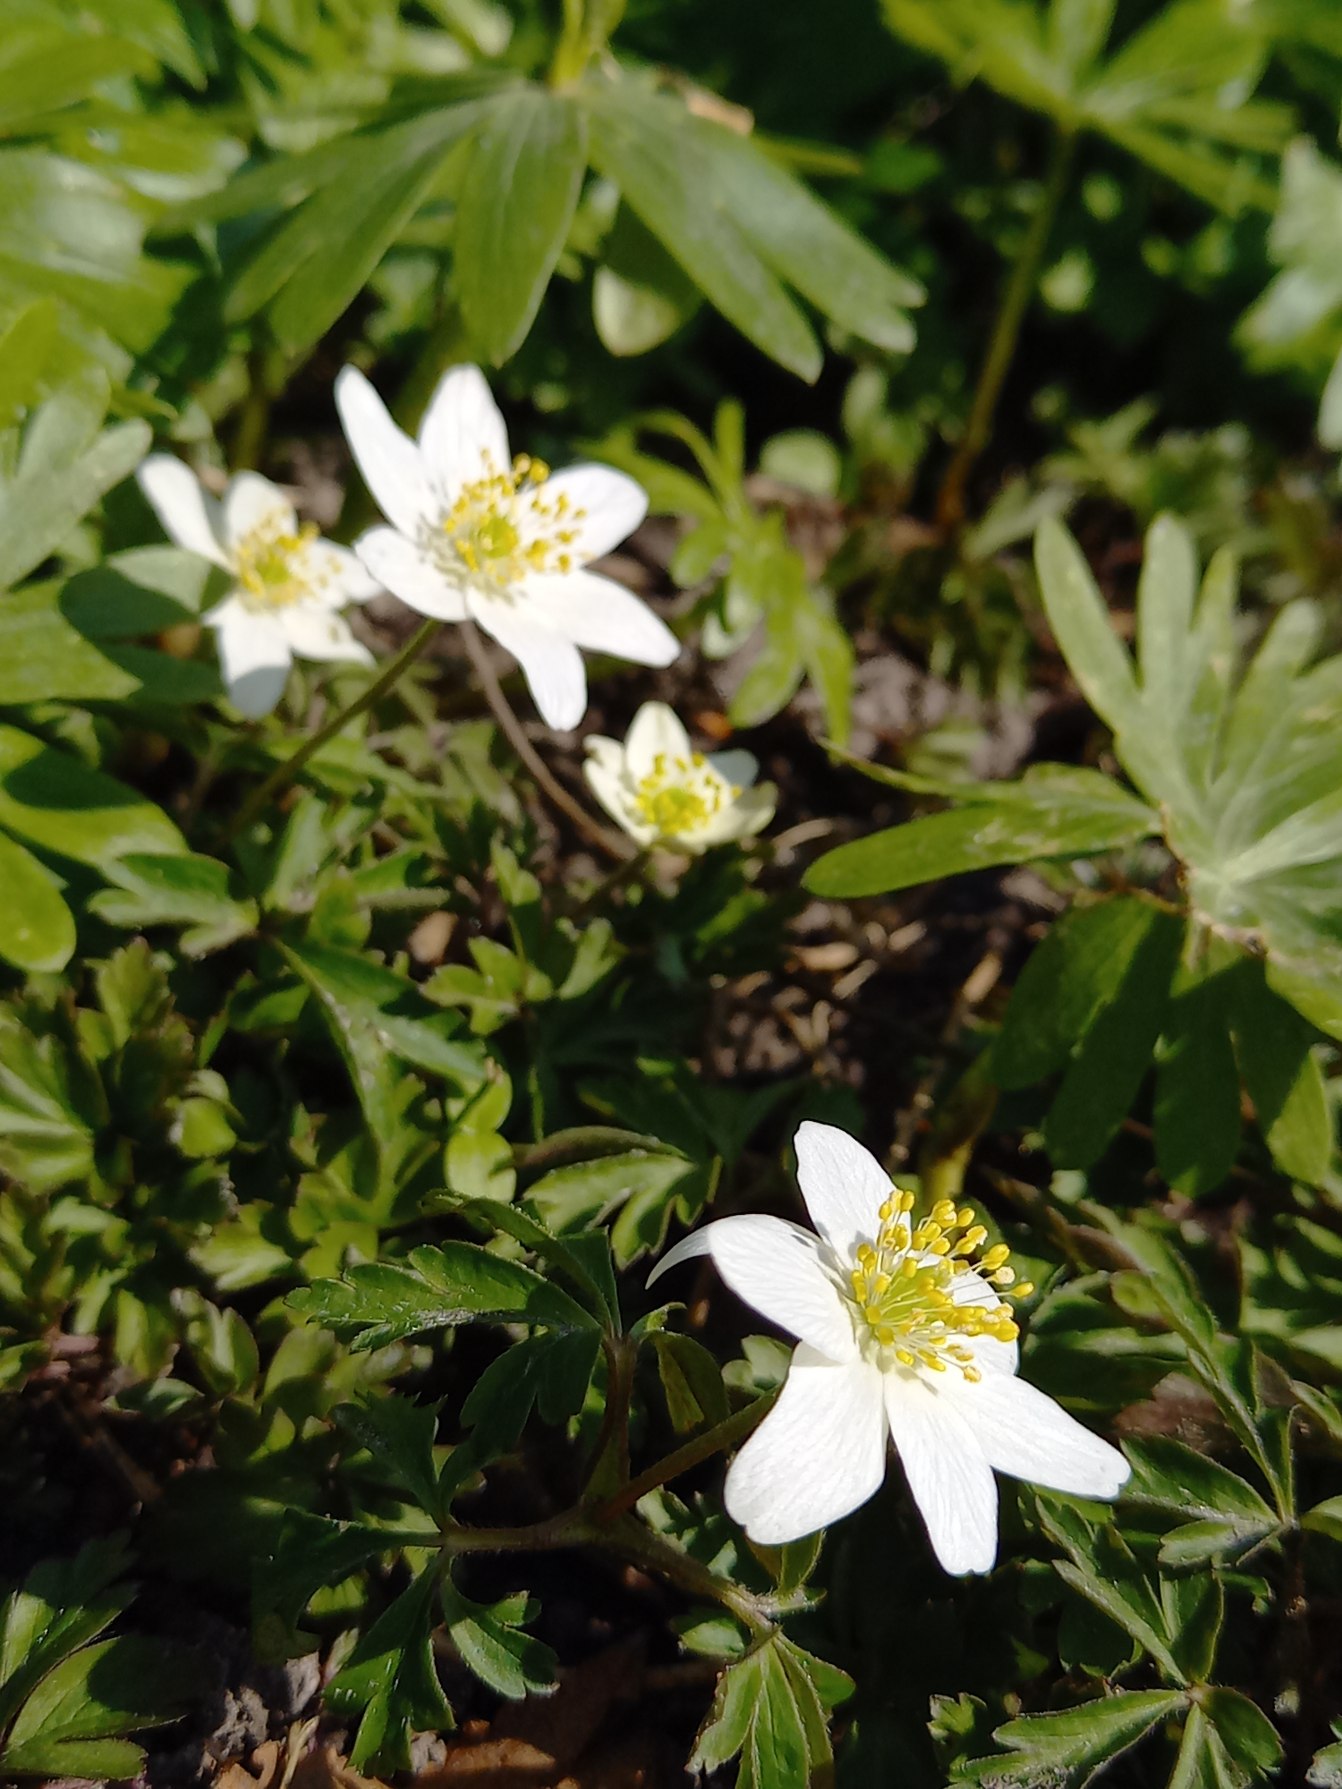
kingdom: Plantae
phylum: Tracheophyta
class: Magnoliopsida
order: Ranunculales
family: Ranunculaceae
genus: Anemone
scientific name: Anemone nemorosa
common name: Hvid anemone
